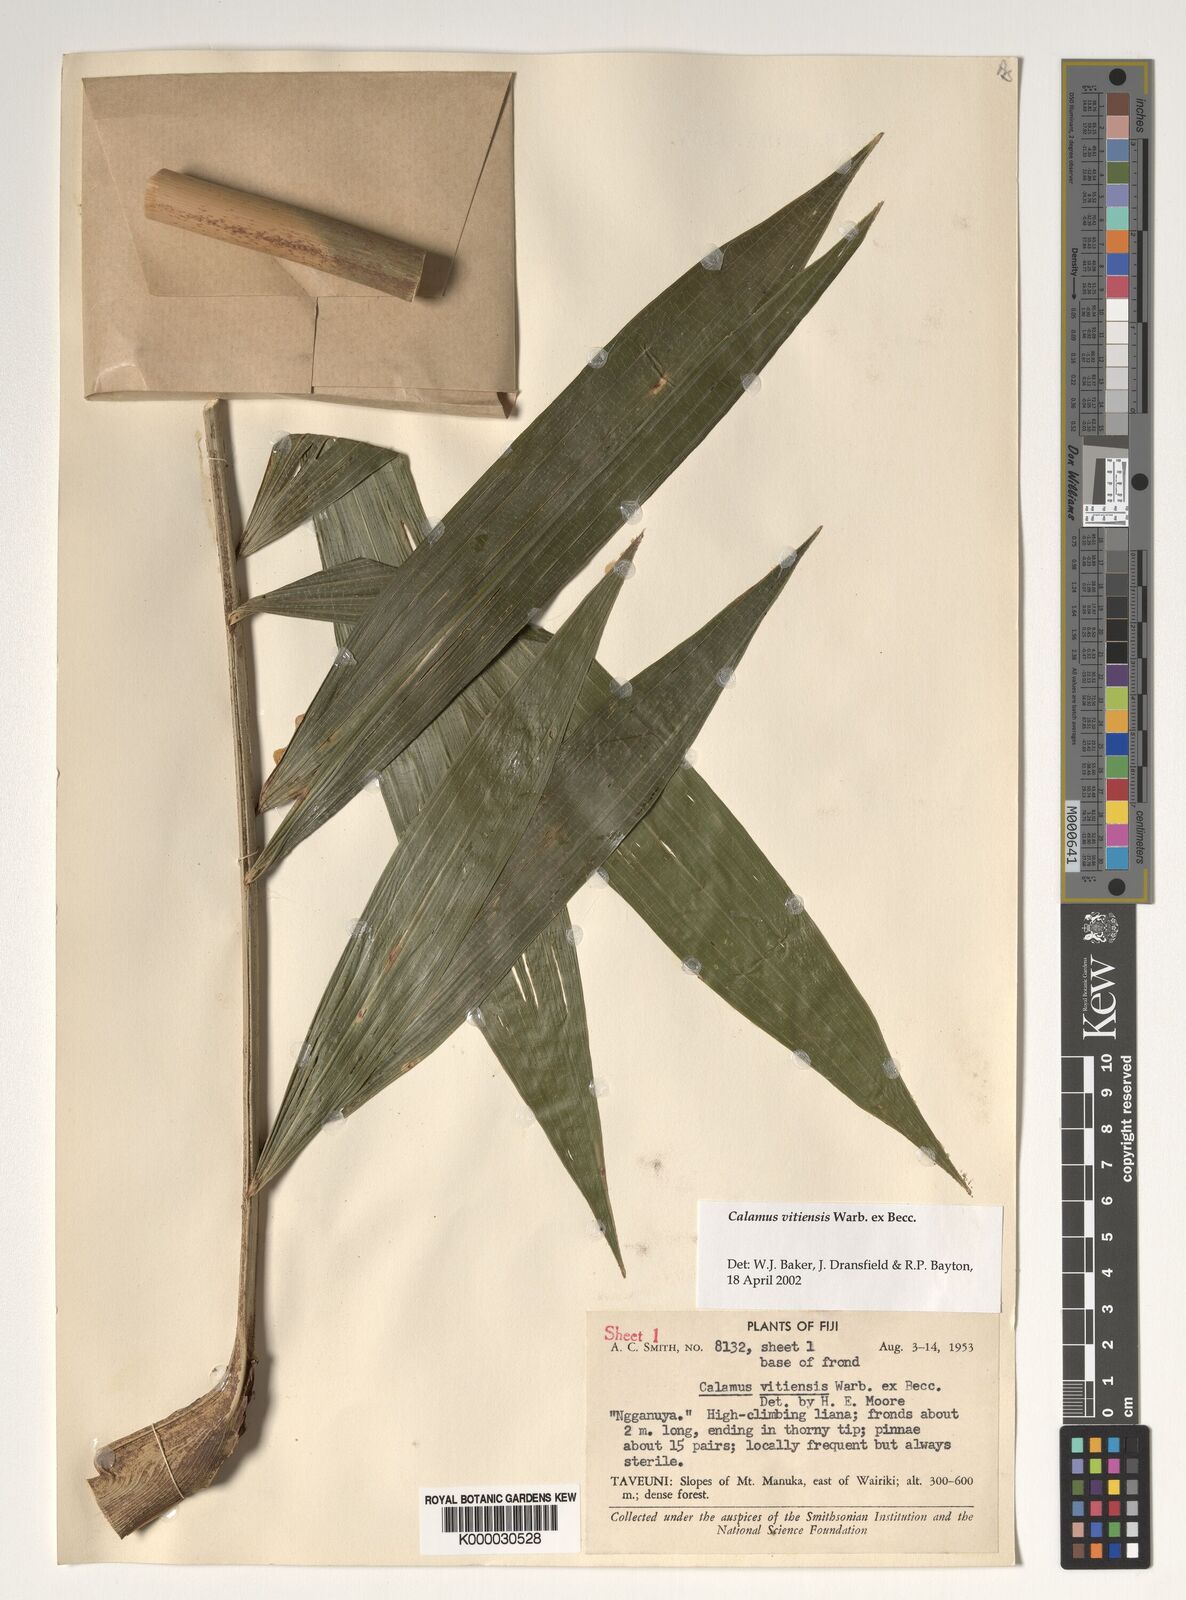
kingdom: Plantae
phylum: Tracheophyta
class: Liliopsida
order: Arecales
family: Arecaceae
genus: Calamus
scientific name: Calamus vitiensis
